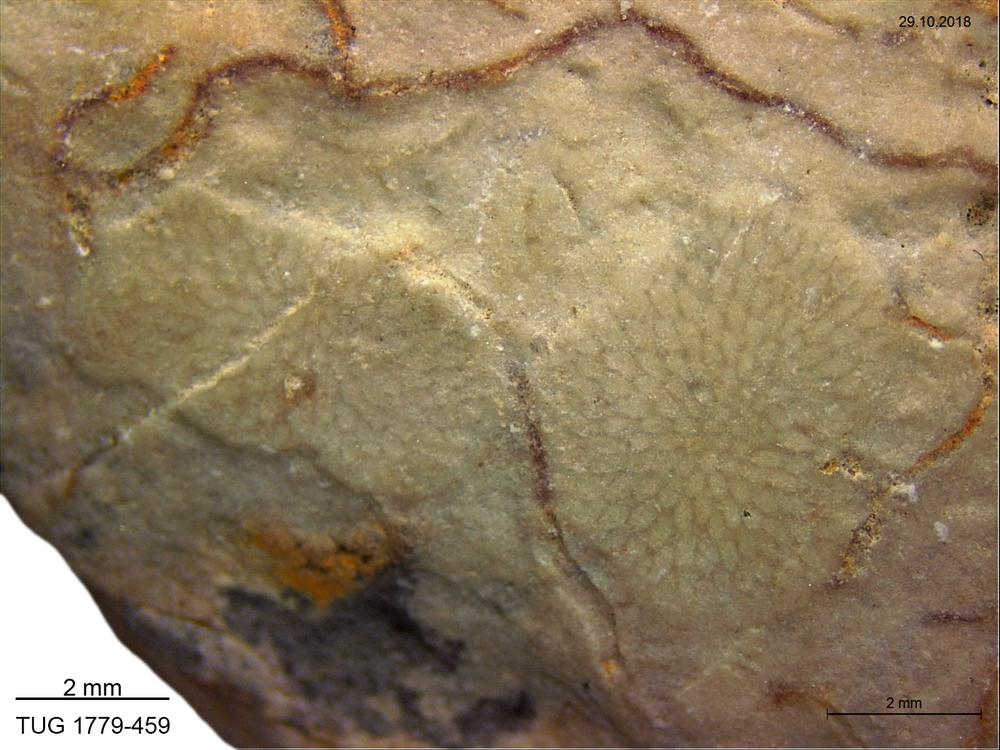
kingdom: Animalia
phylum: Bryozoa
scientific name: Bryozoa
